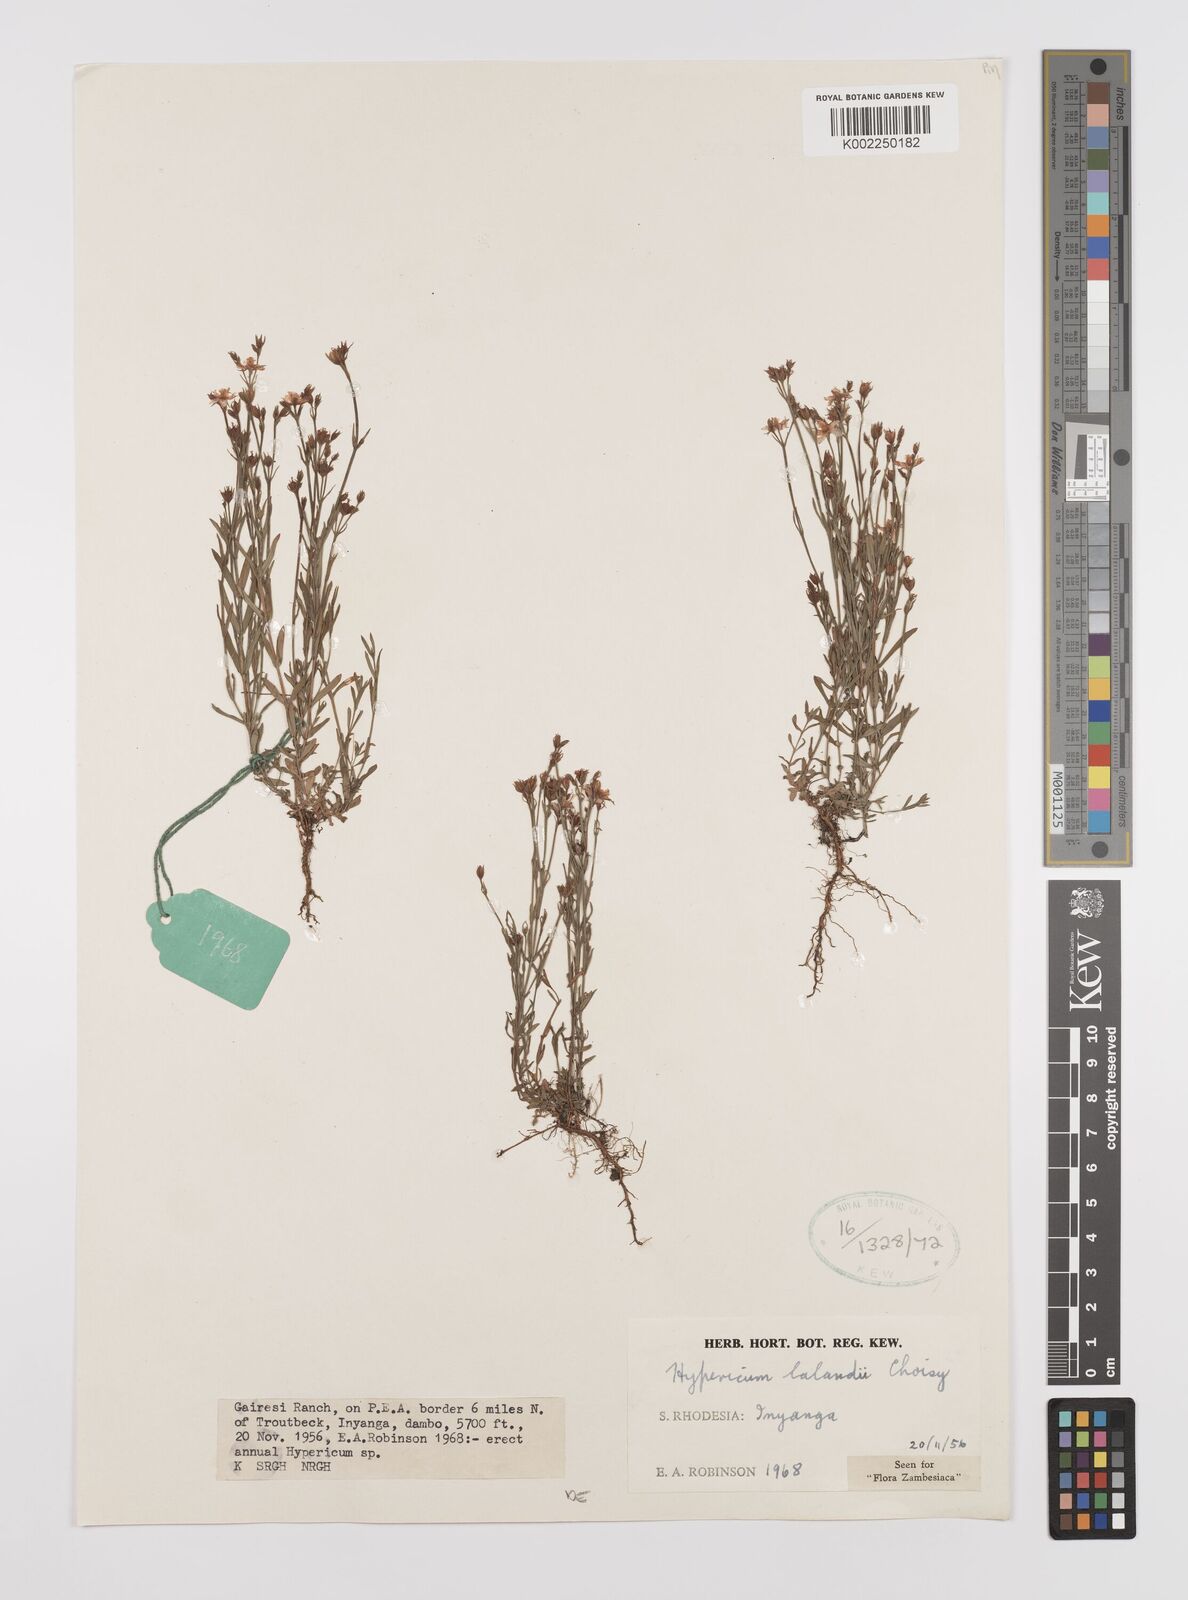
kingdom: Plantae
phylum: Tracheophyta
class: Magnoliopsida
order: Malpighiales
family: Hypericaceae
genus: Hypericum
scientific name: Hypericum lalandii
